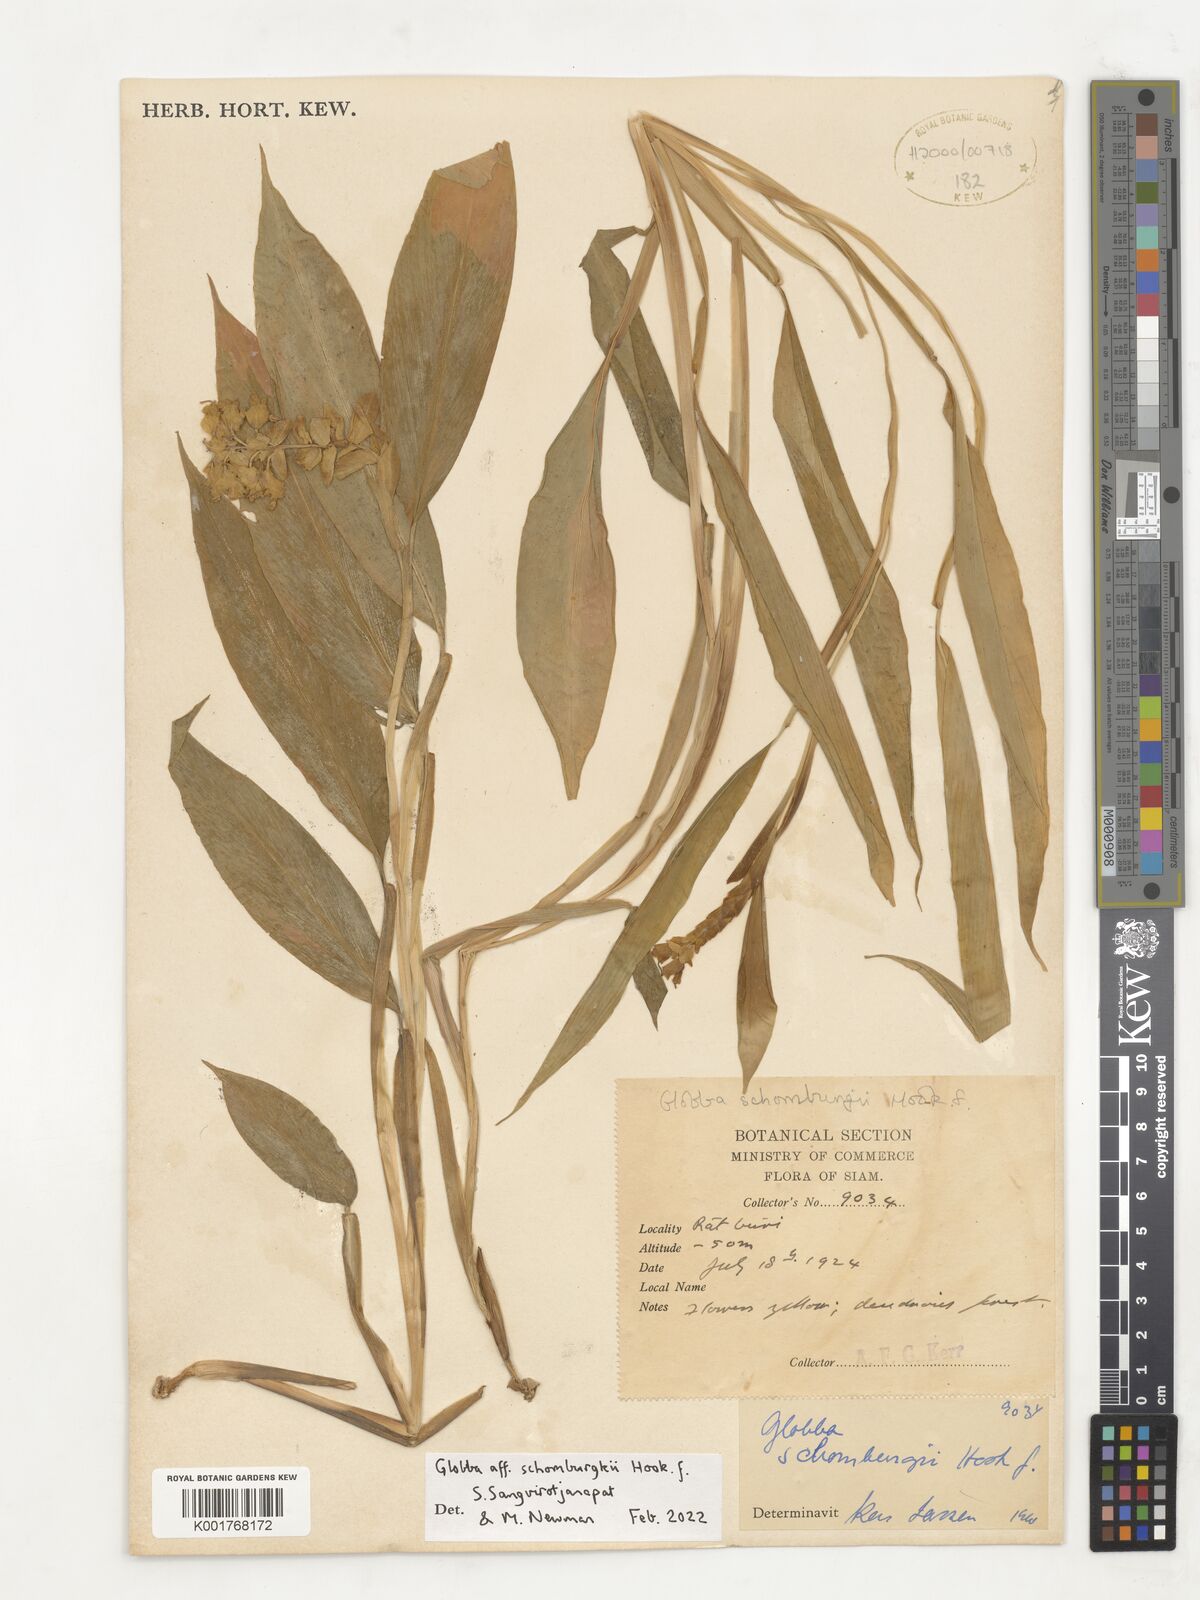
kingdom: Plantae
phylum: Tracheophyta
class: Liliopsida
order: Zingiberales
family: Zingiberaceae
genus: Globba
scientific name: Globba schomburgkii
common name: Dancing girl ginger
